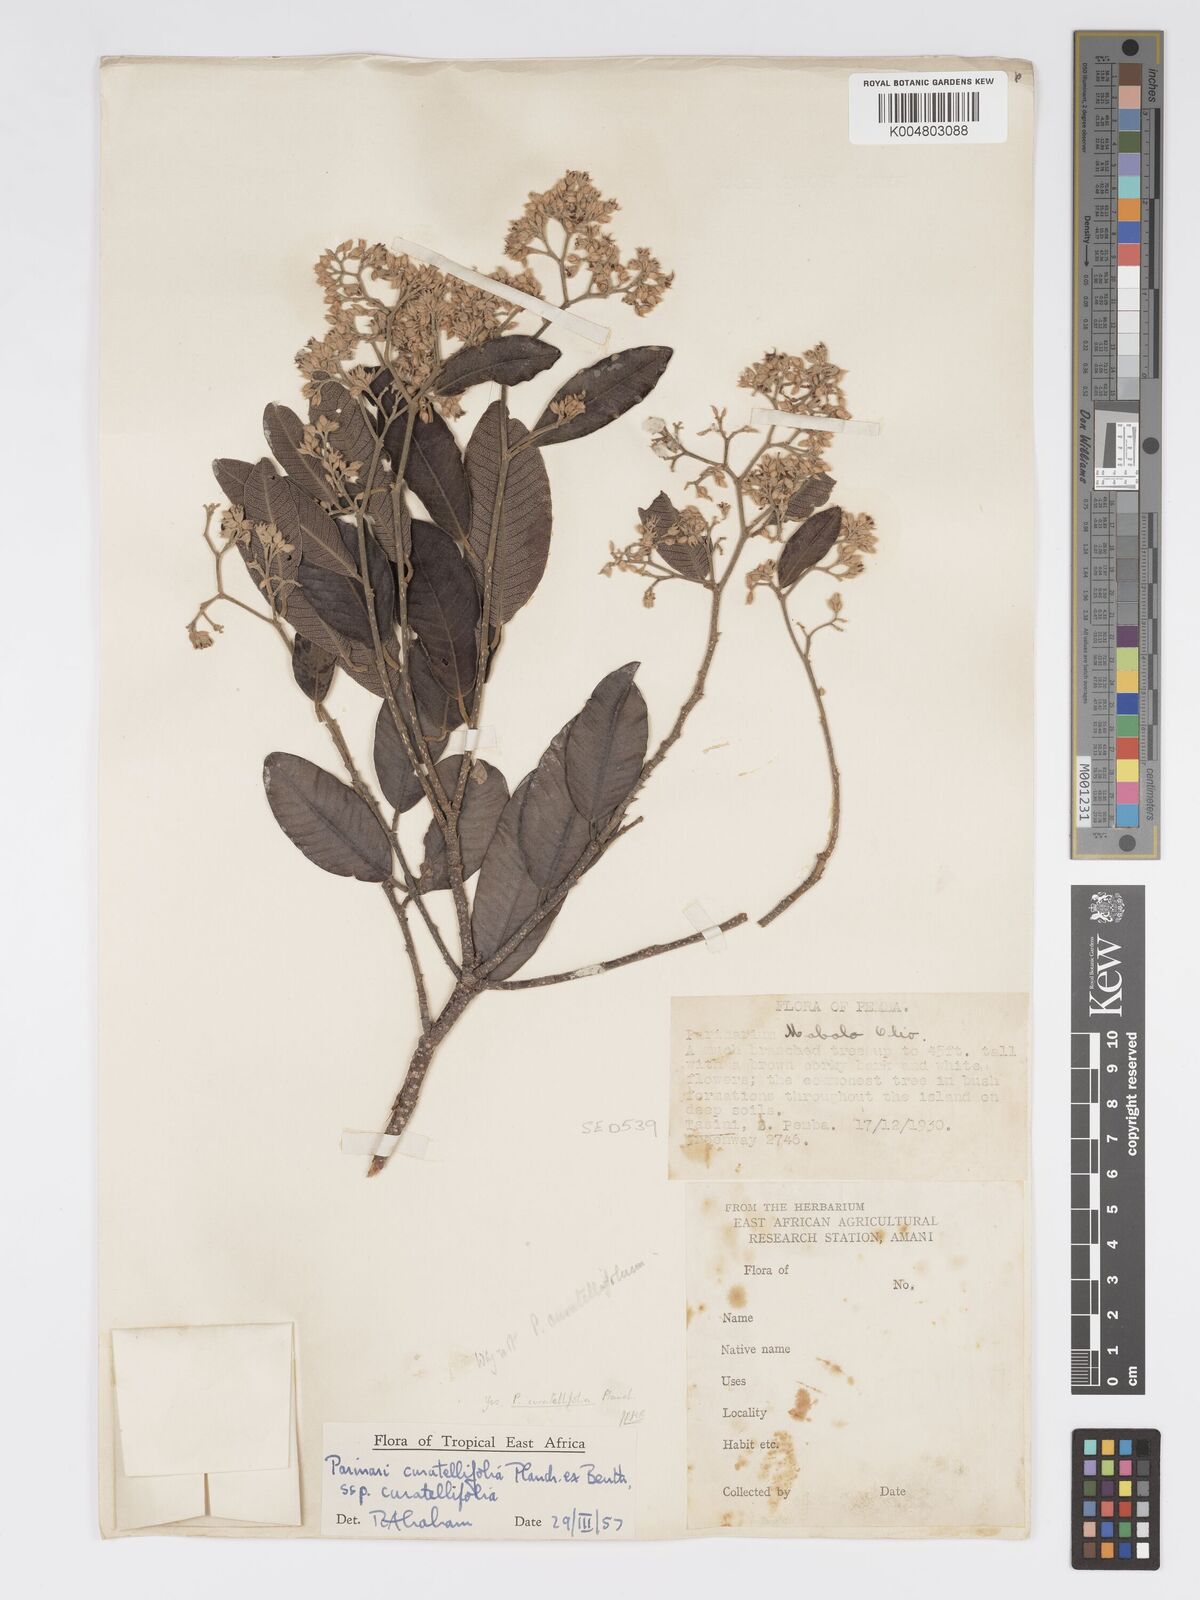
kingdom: Plantae
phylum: Tracheophyta
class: Magnoliopsida
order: Malpighiales
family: Chrysobalanaceae
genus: Parinari
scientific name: Parinari curatellifolia
